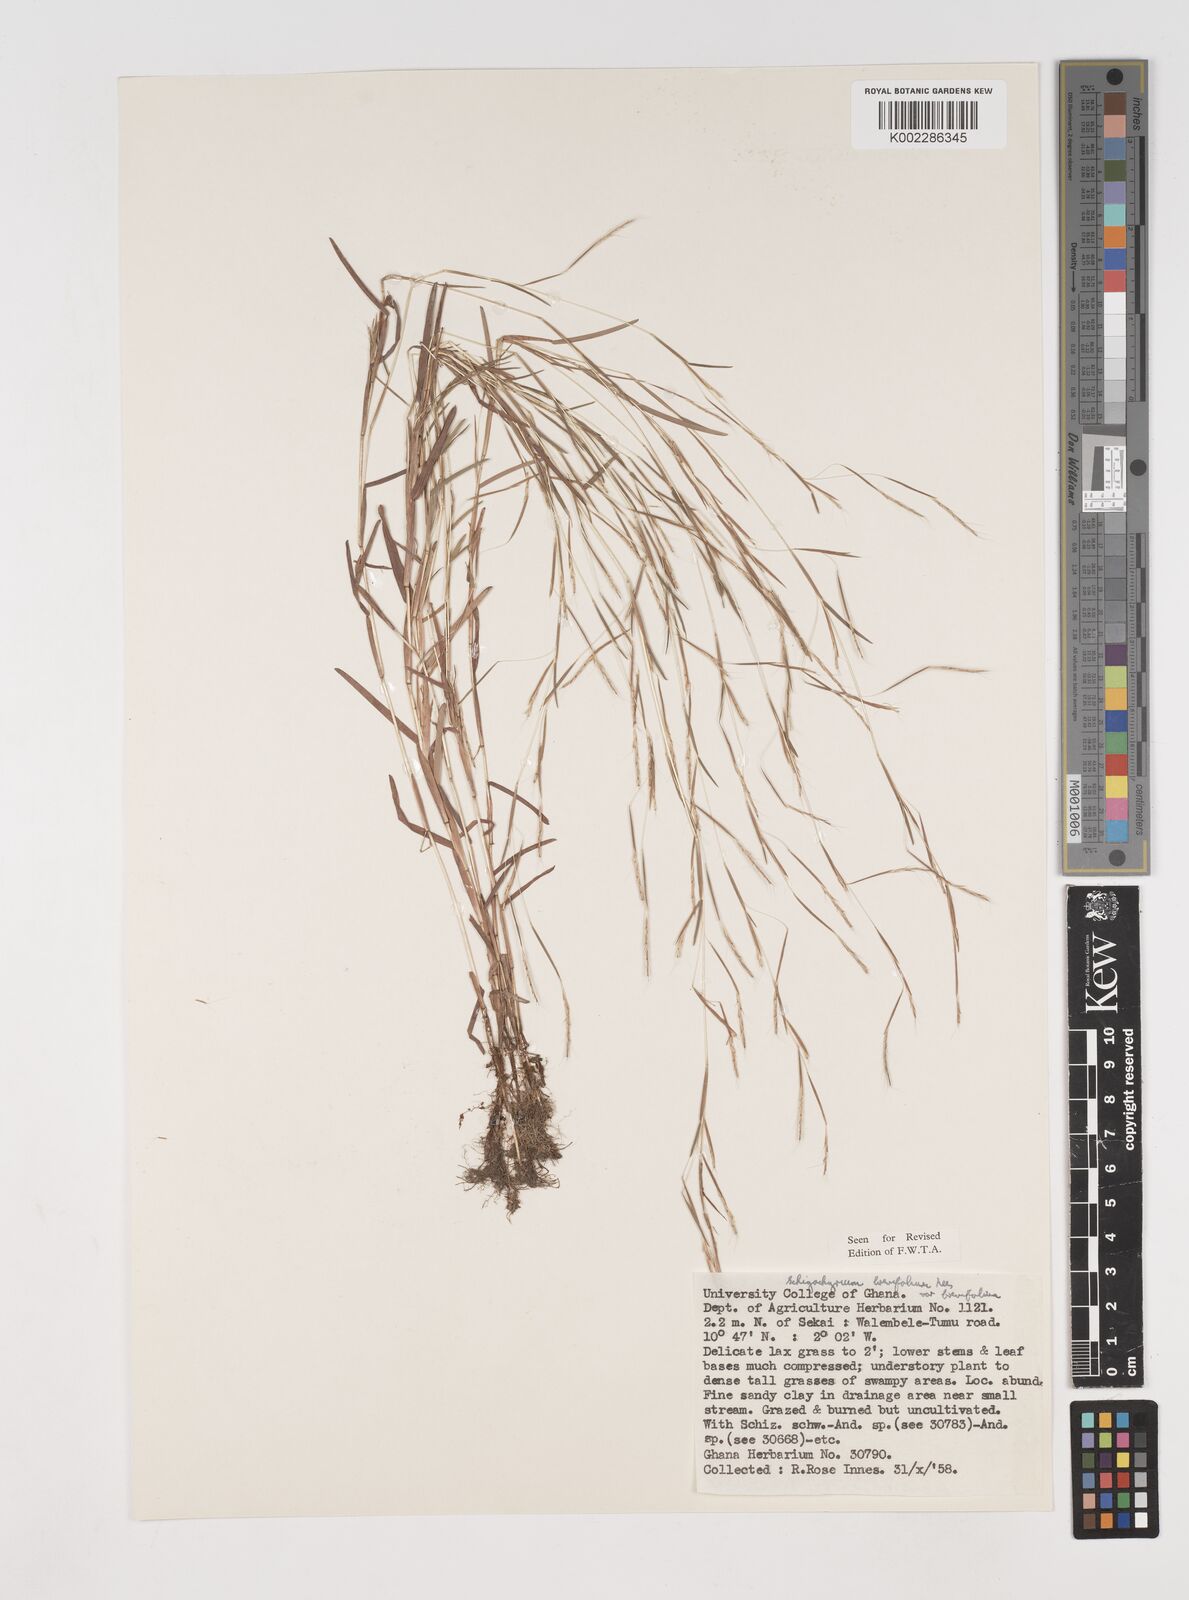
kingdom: Plantae
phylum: Tracheophyta
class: Liliopsida
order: Poales
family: Poaceae
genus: Schizachyrium
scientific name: Schizachyrium brevifolium
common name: Serillo dulce
